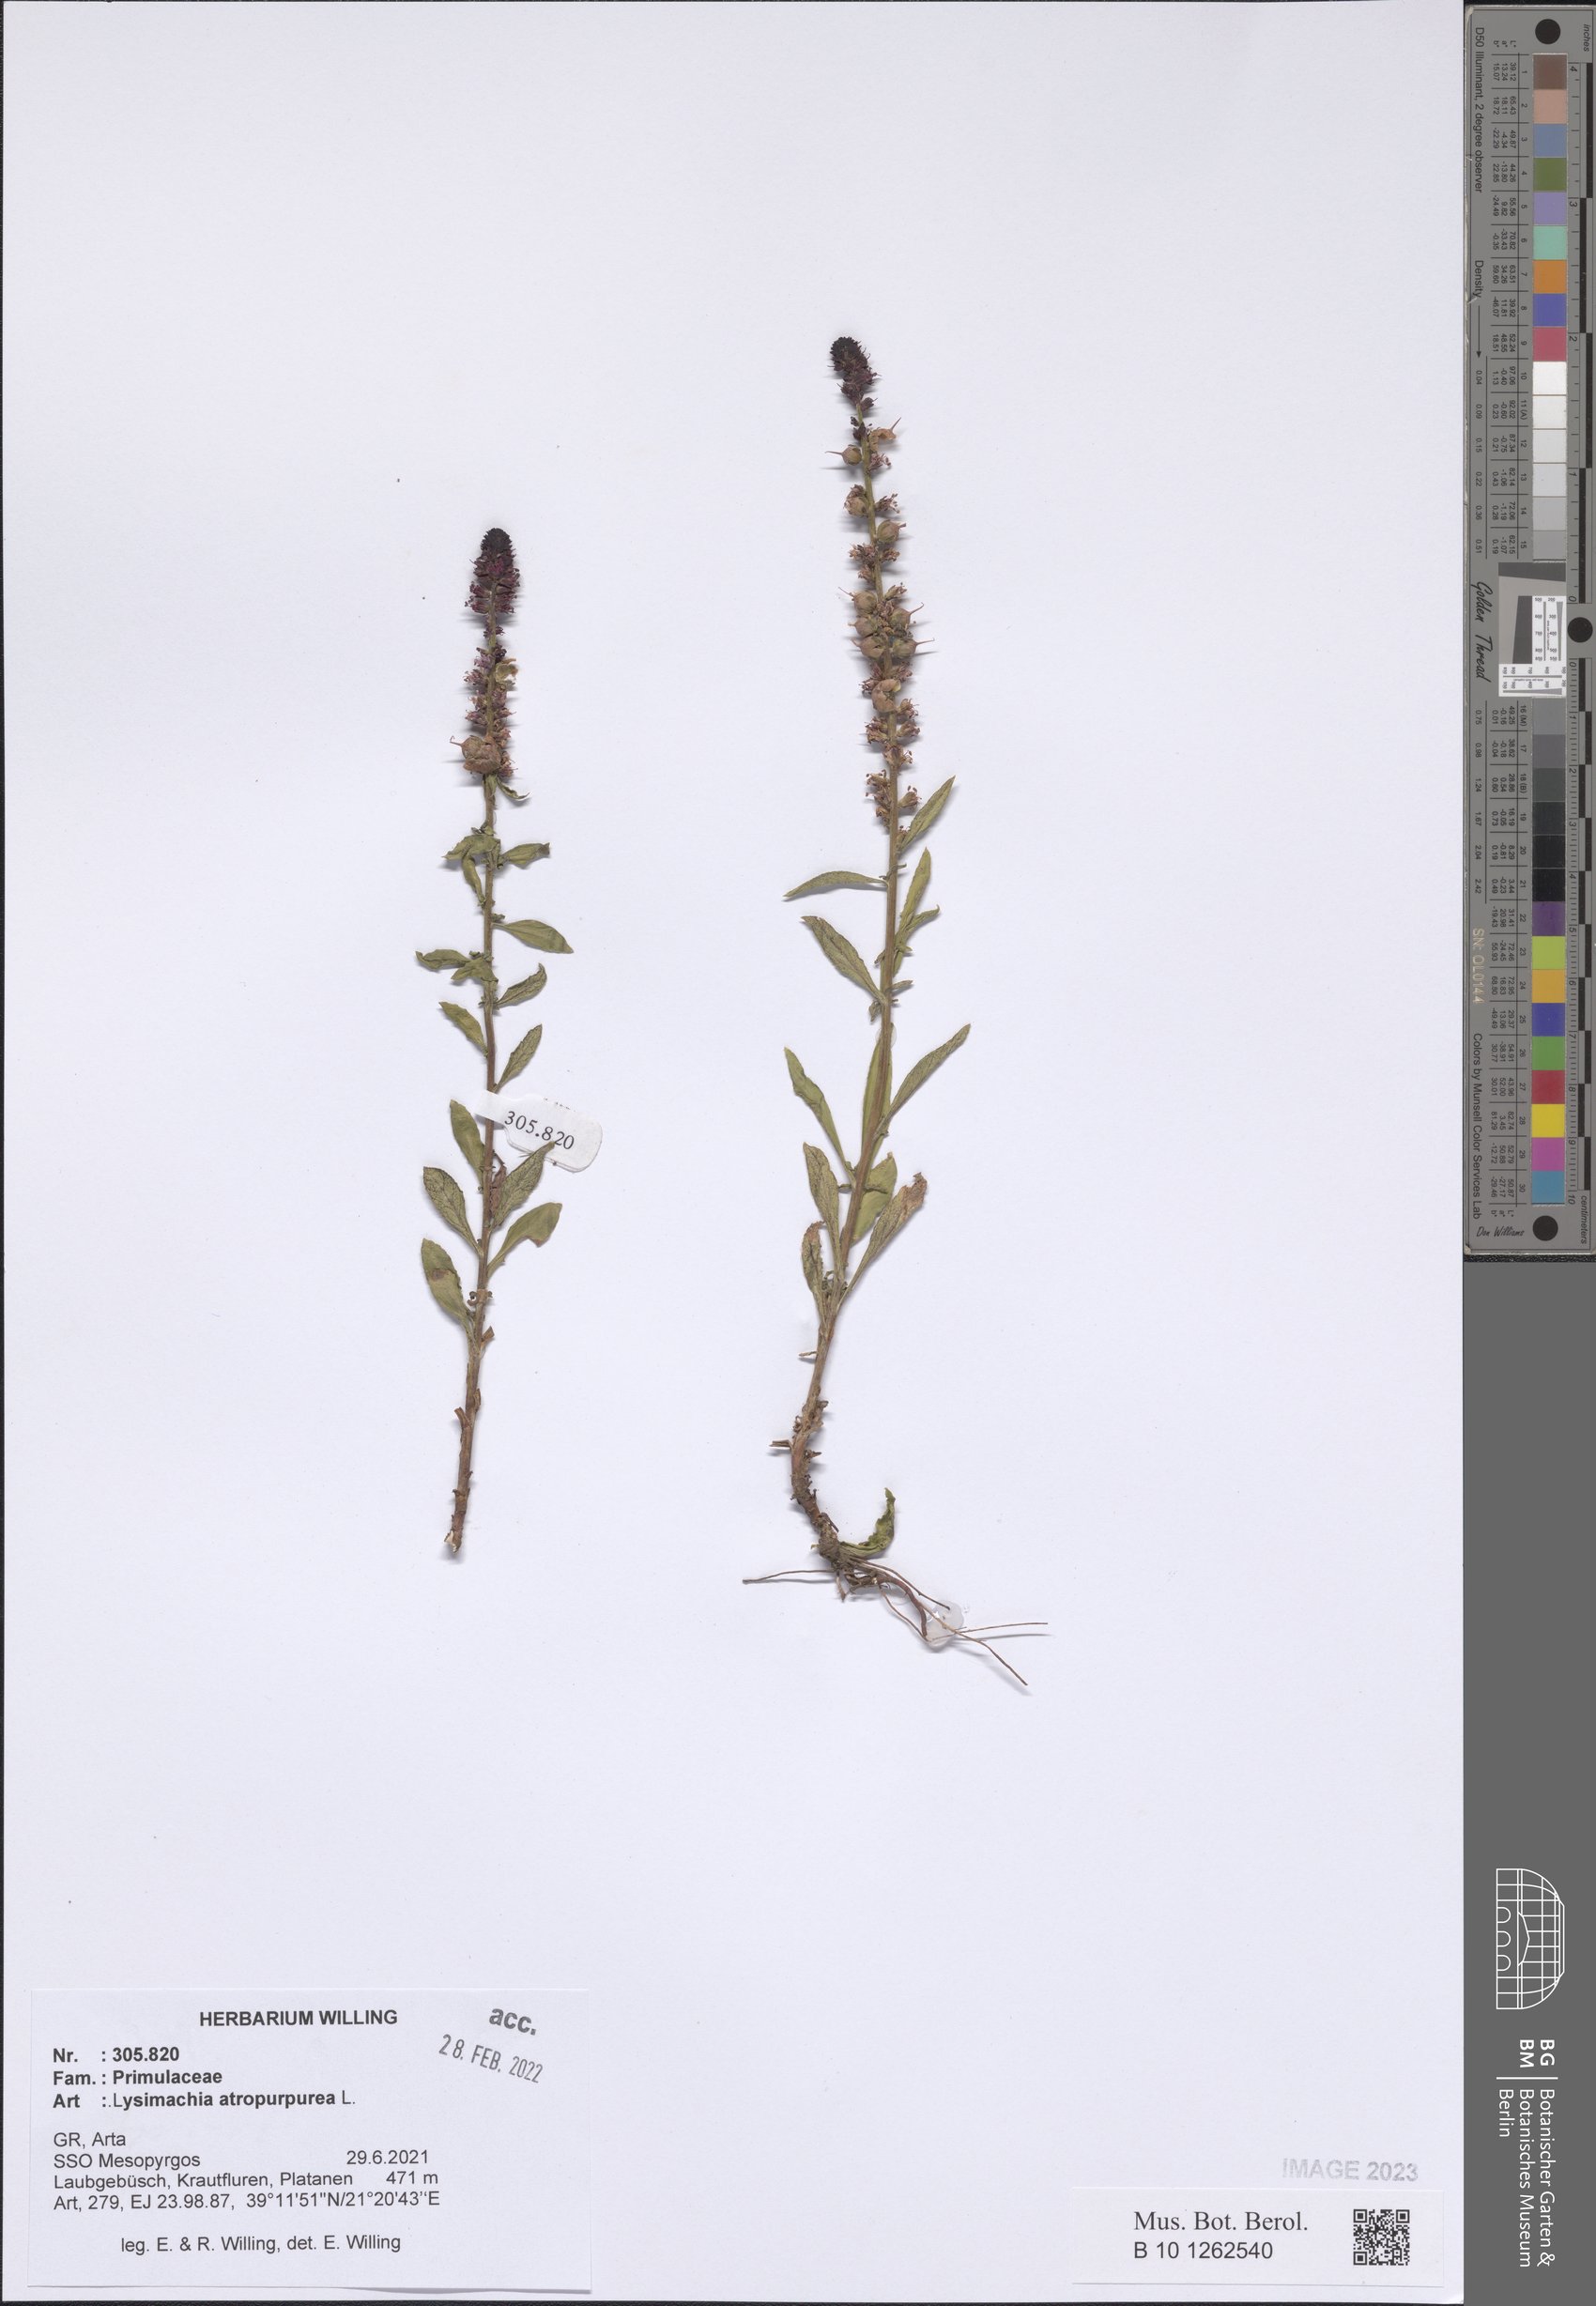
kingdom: Plantae
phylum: Tracheophyta
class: Magnoliopsida
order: Ericales
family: Primulaceae
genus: Lysimachia
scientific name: Lysimachia atropurpurea
